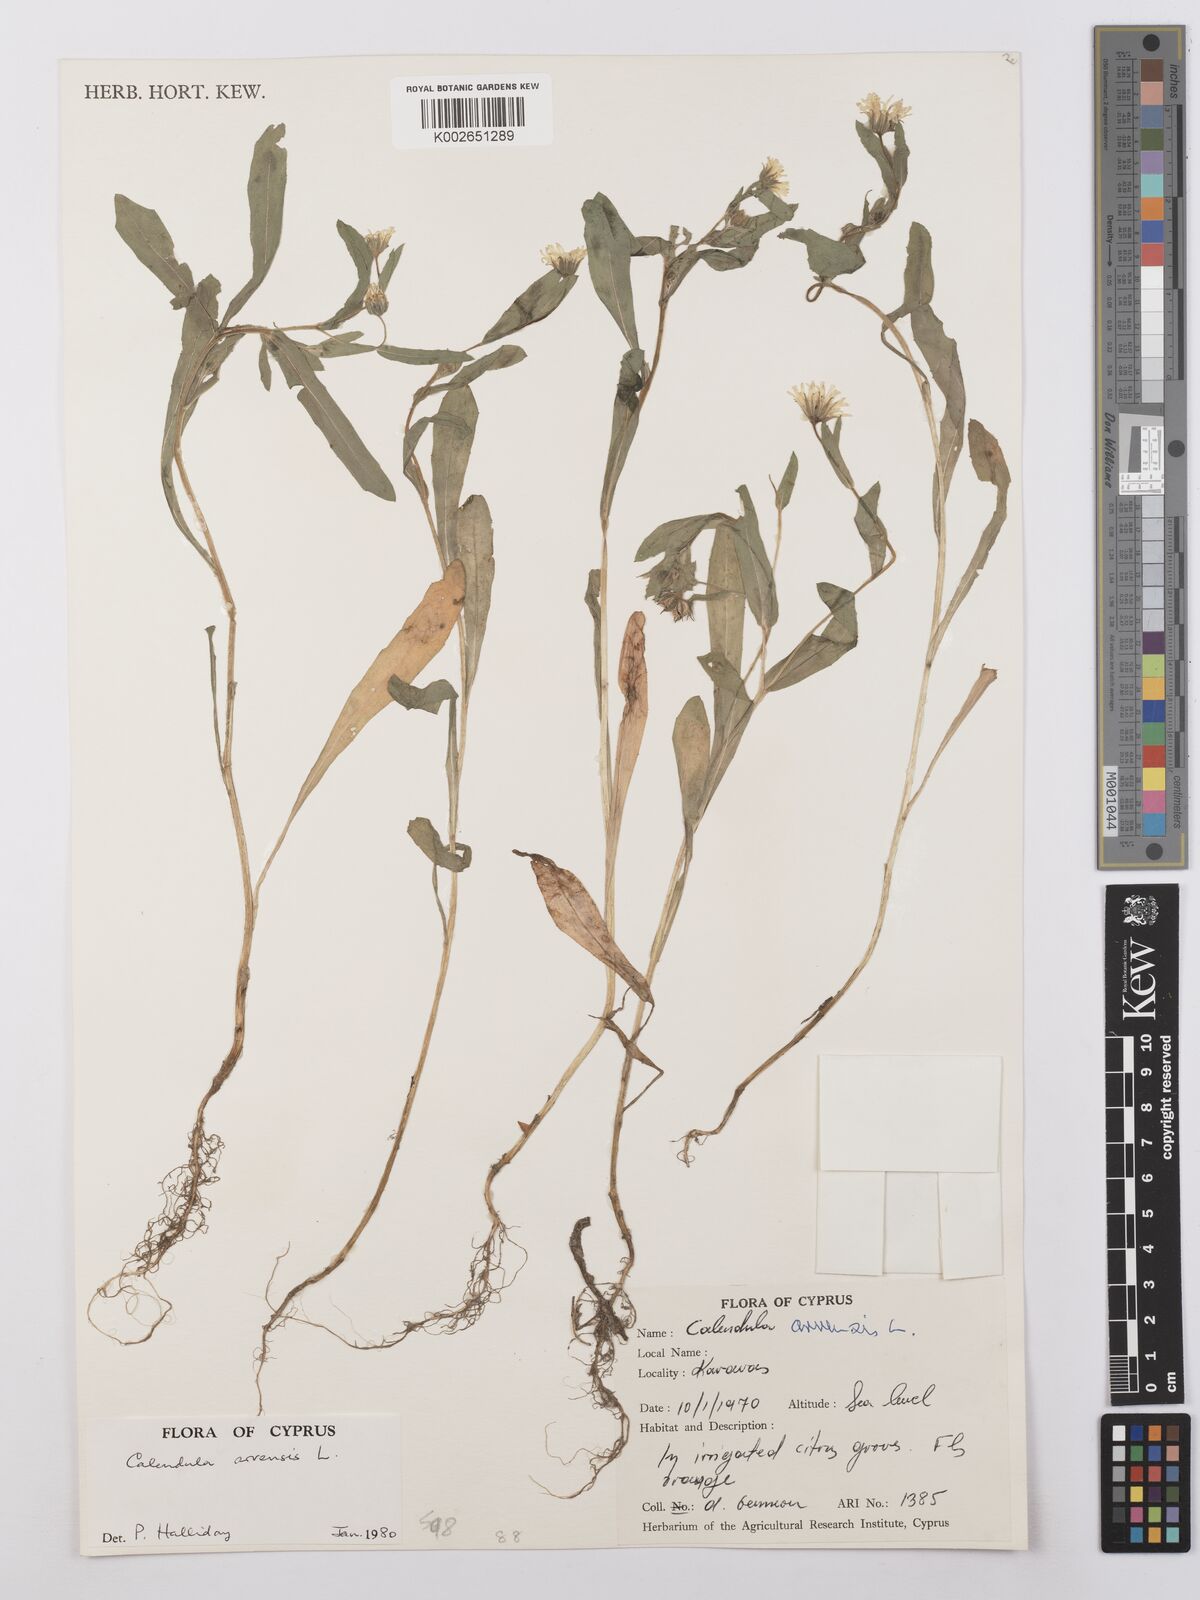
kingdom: Plantae
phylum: Tracheophyta
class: Magnoliopsida
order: Asterales
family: Asteraceae
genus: Calendula
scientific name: Calendula arvensis
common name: Field marigold
